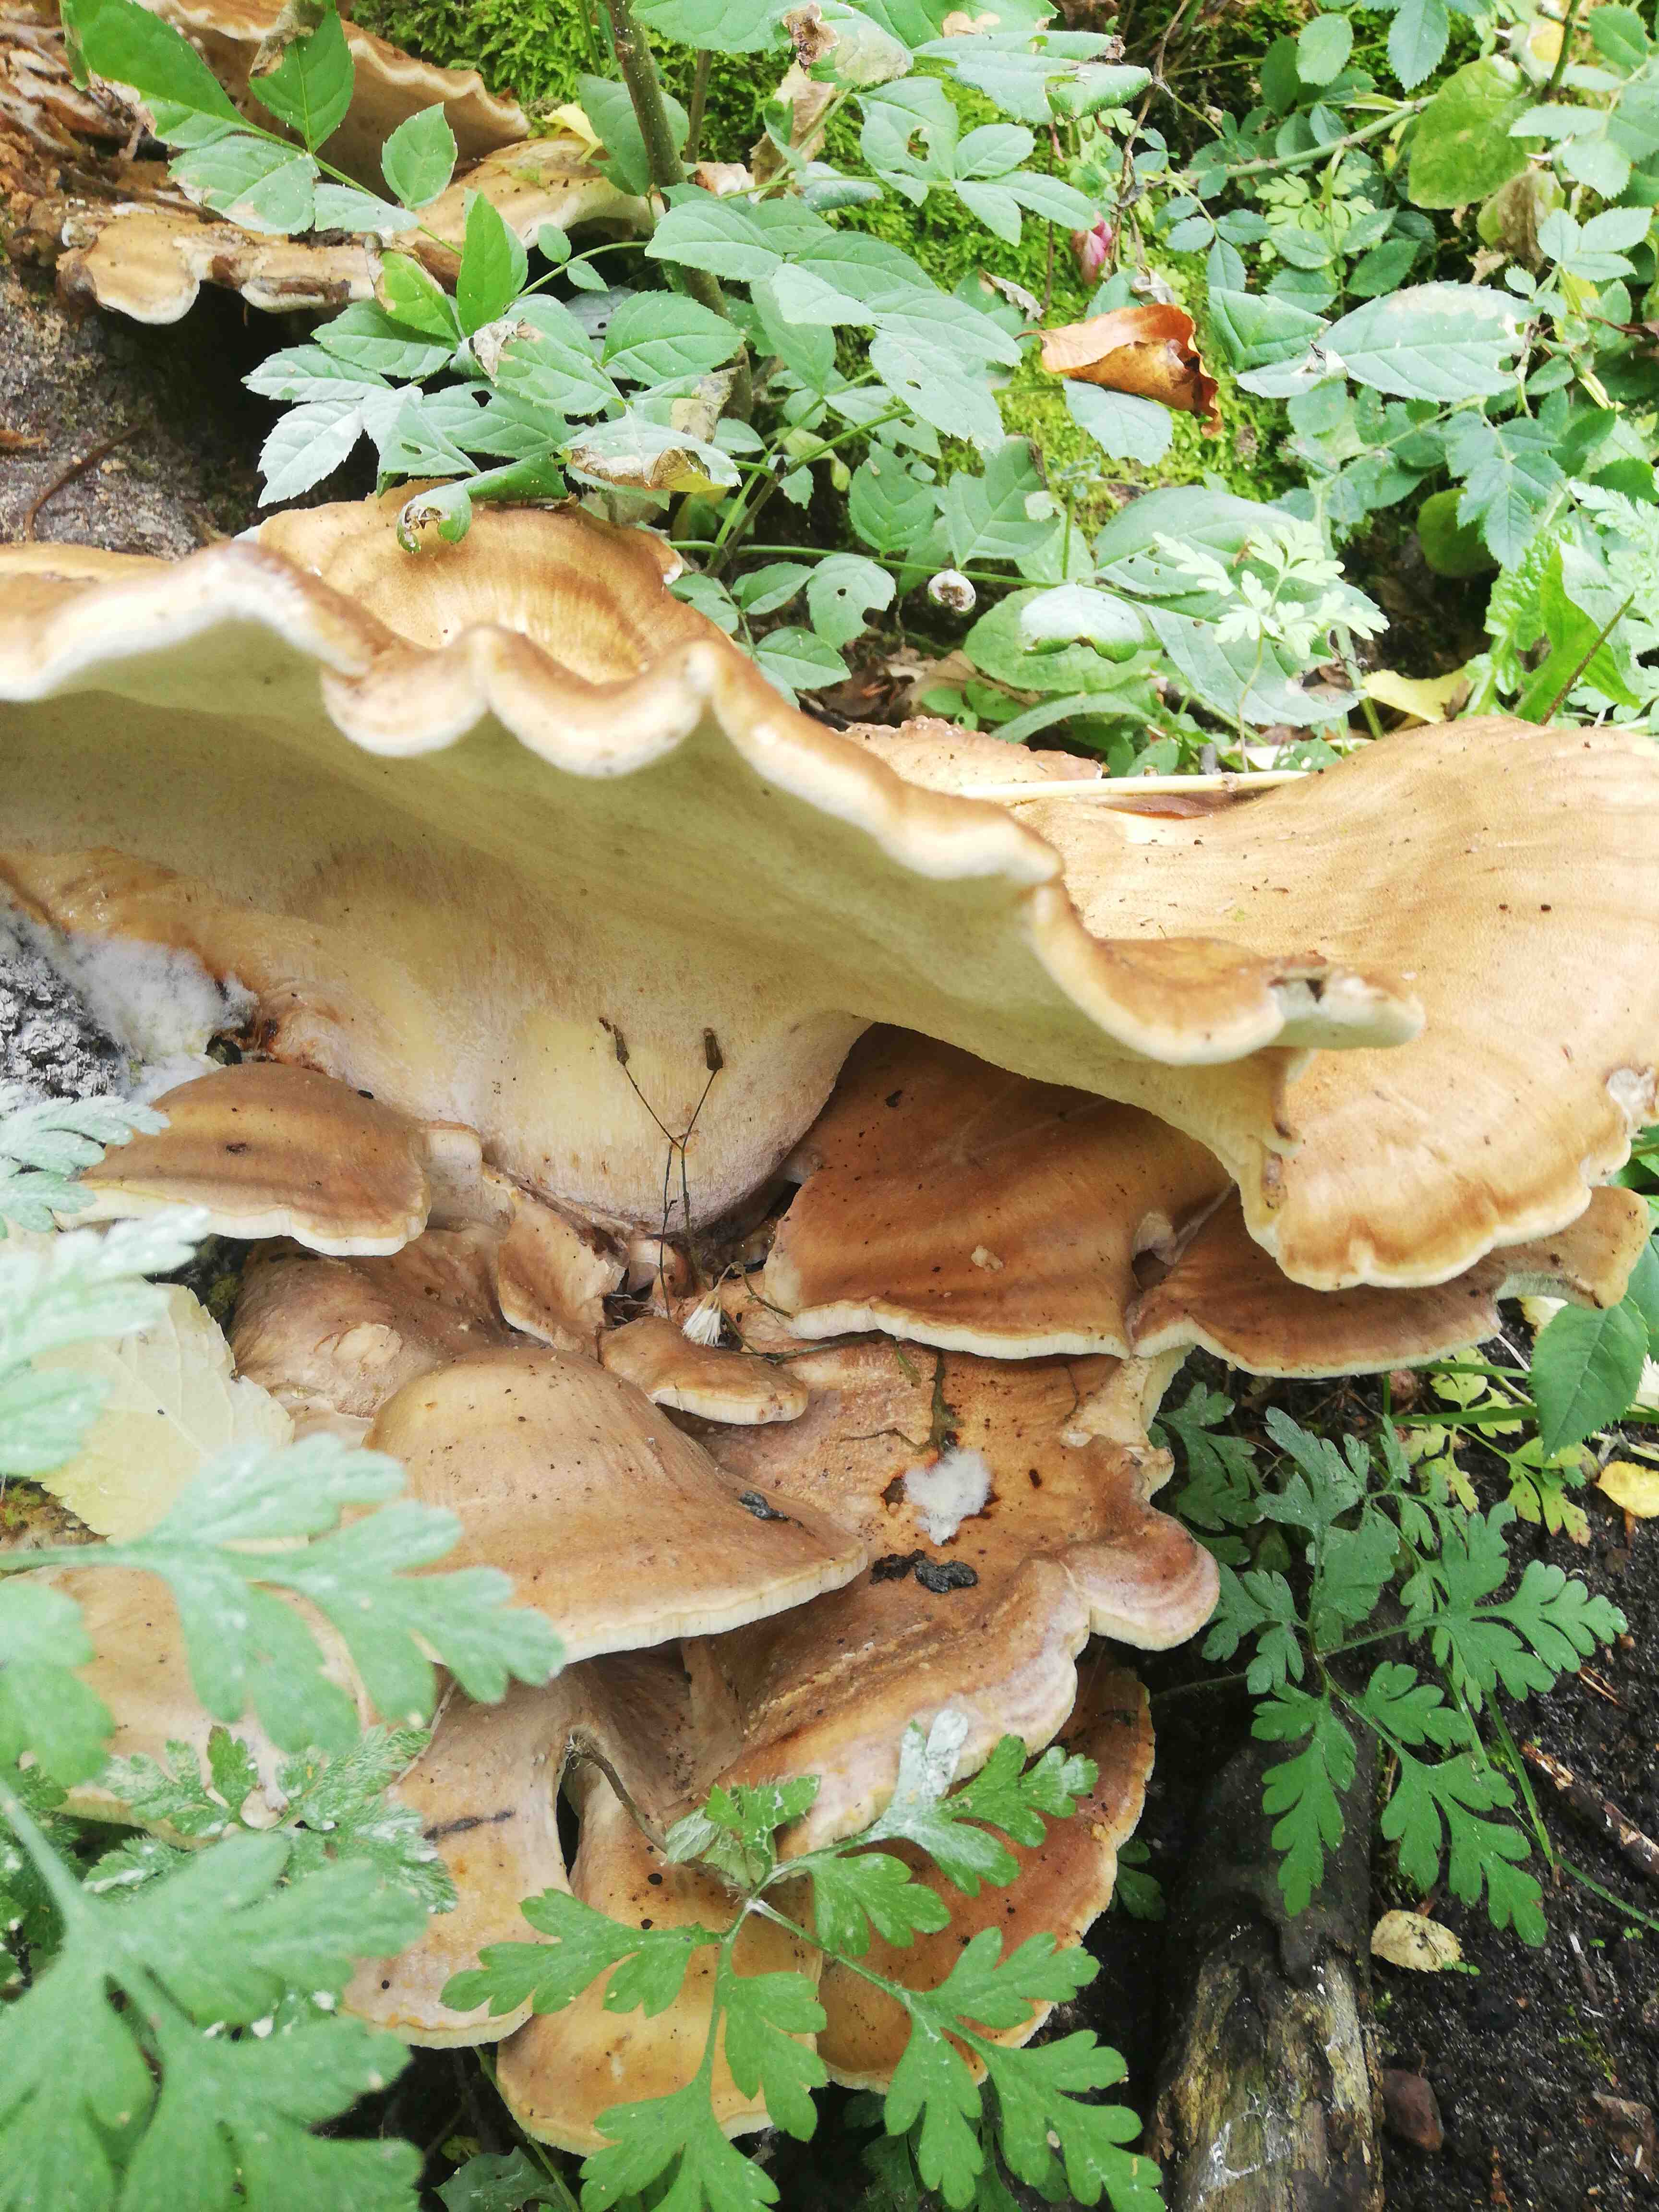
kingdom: Fungi
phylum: Basidiomycota
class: Agaricomycetes
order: Polyporales
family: Meripilaceae
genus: Meripilus
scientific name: Meripilus giganteus
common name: kæmpeporesvamp
